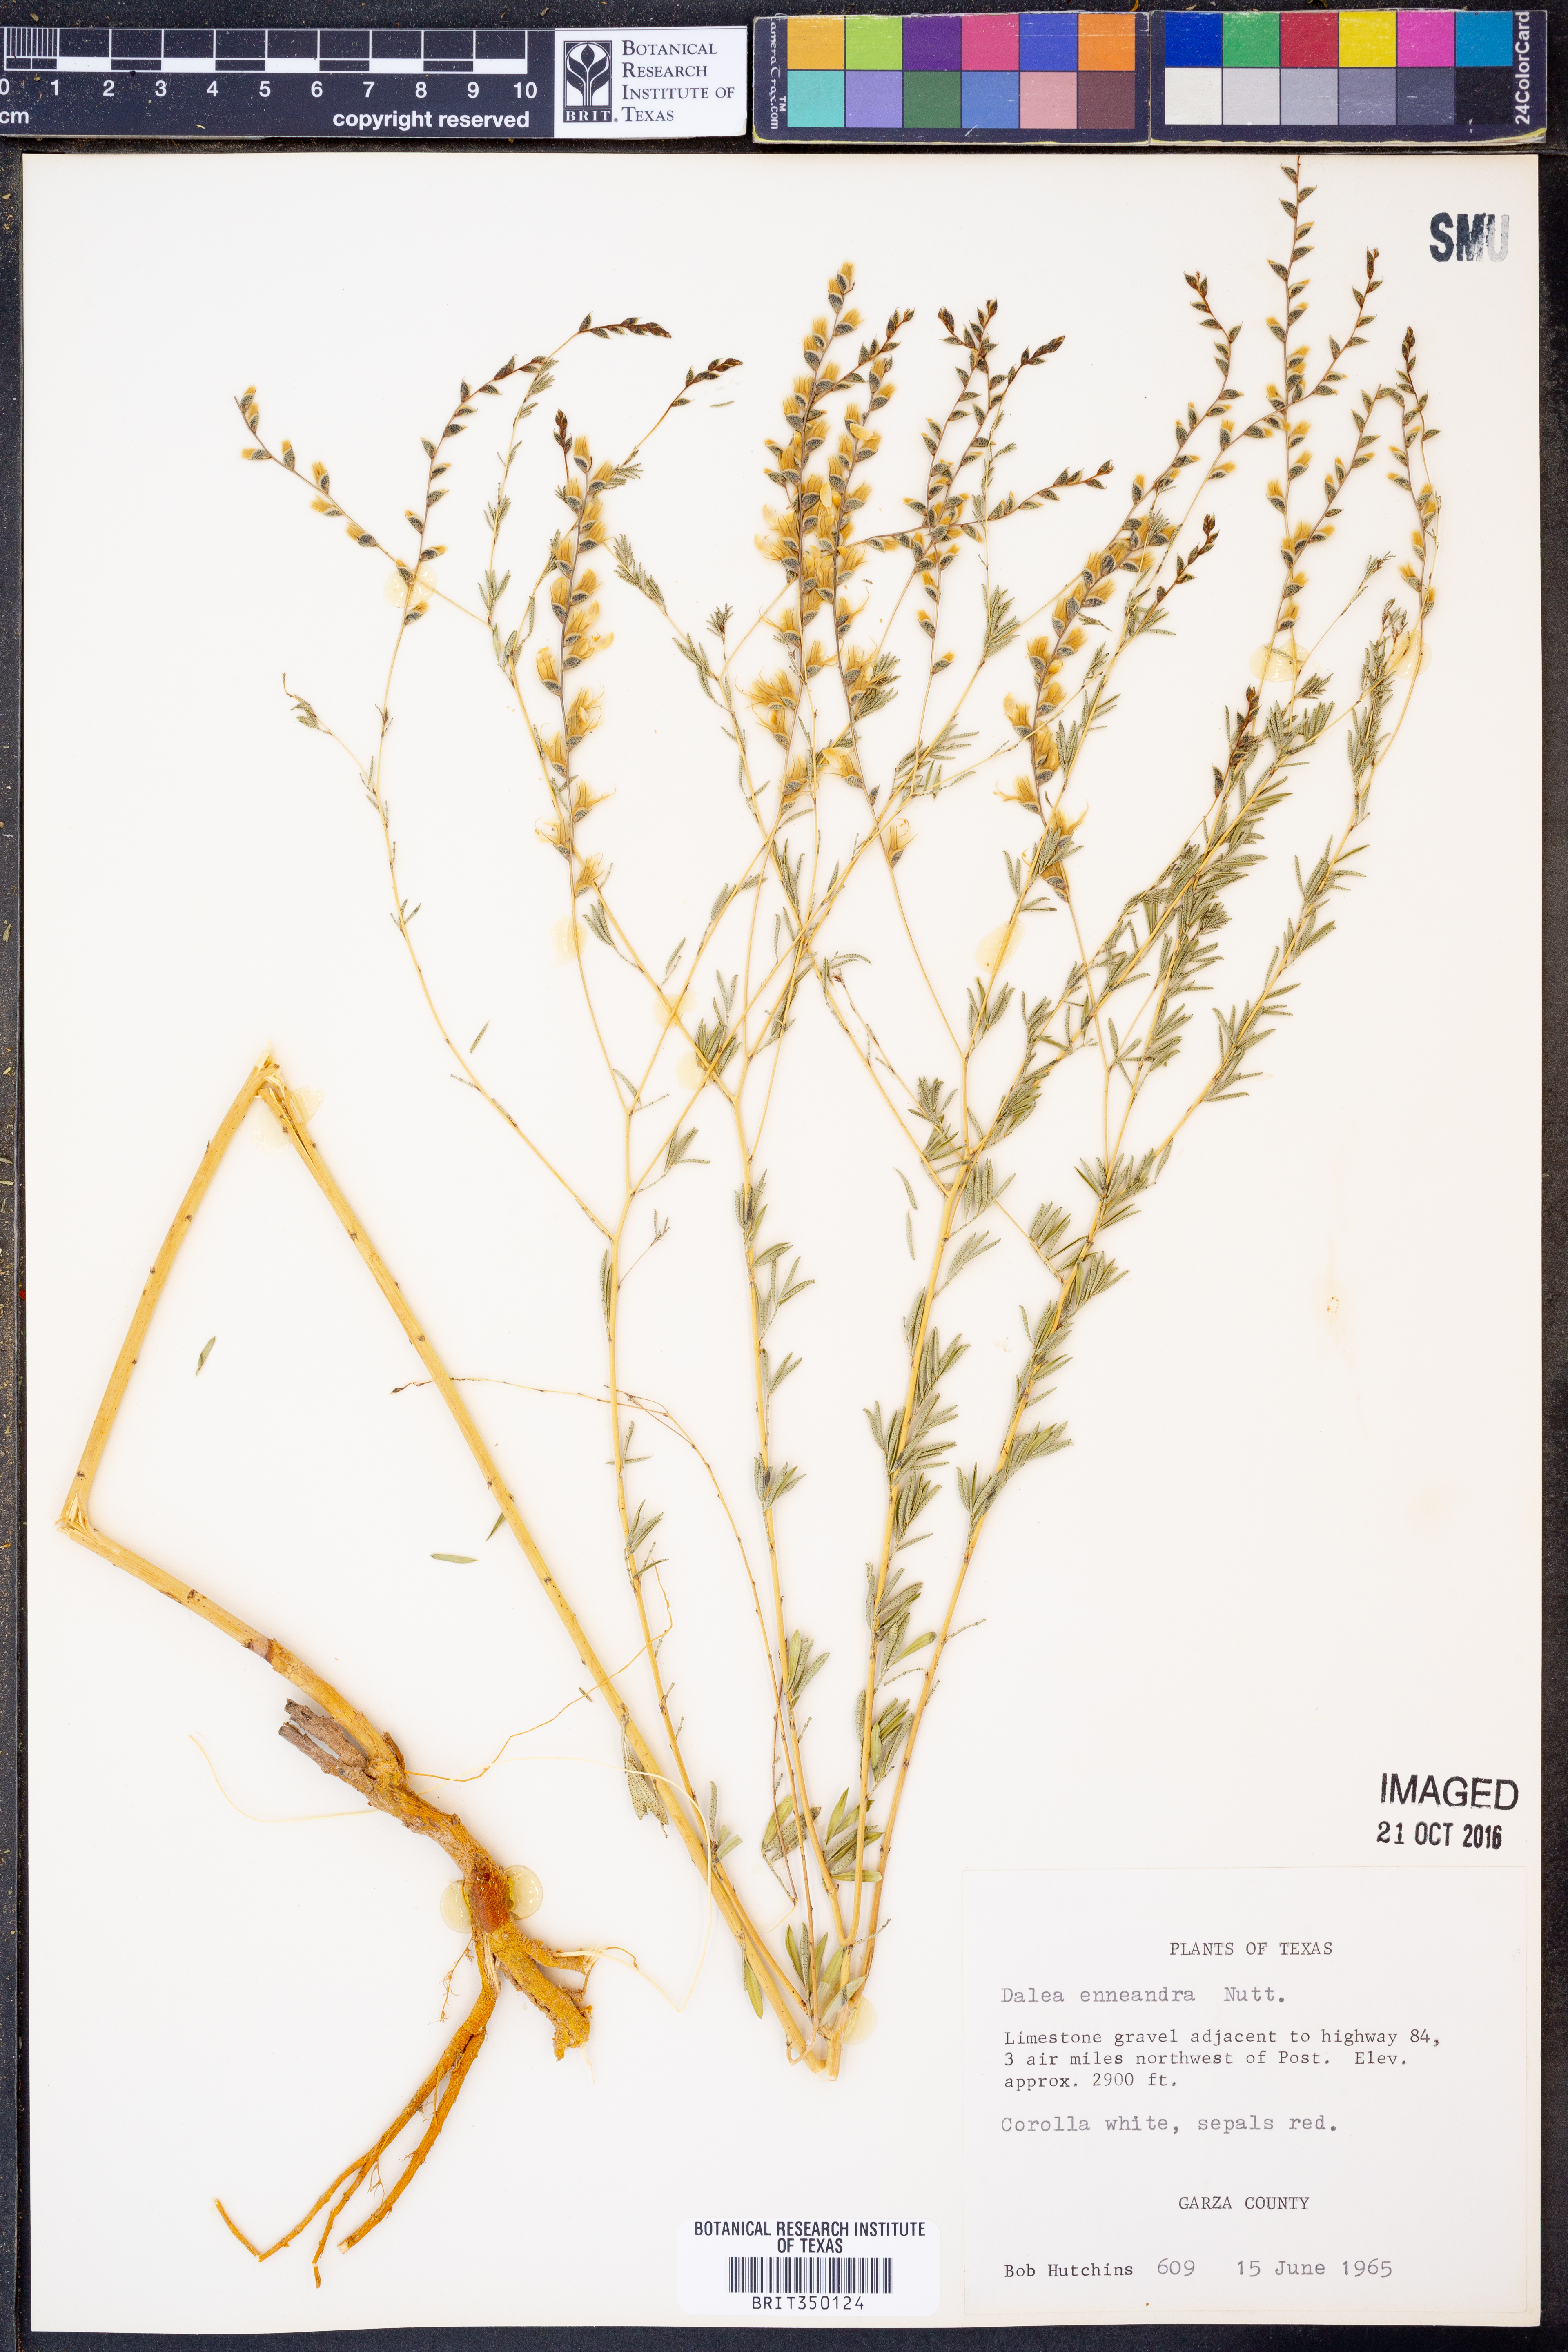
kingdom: Plantae
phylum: Tracheophyta
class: Magnoliopsida
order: Fabales
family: Fabaceae
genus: Dalea
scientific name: Dalea enneandra
